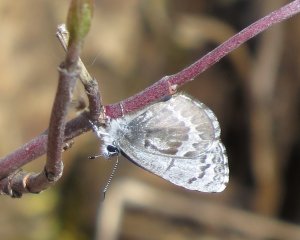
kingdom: Animalia
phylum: Arthropoda
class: Insecta
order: Lepidoptera
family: Lycaenidae
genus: Celastrina
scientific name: Celastrina lucia
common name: Northern Spring Azure
